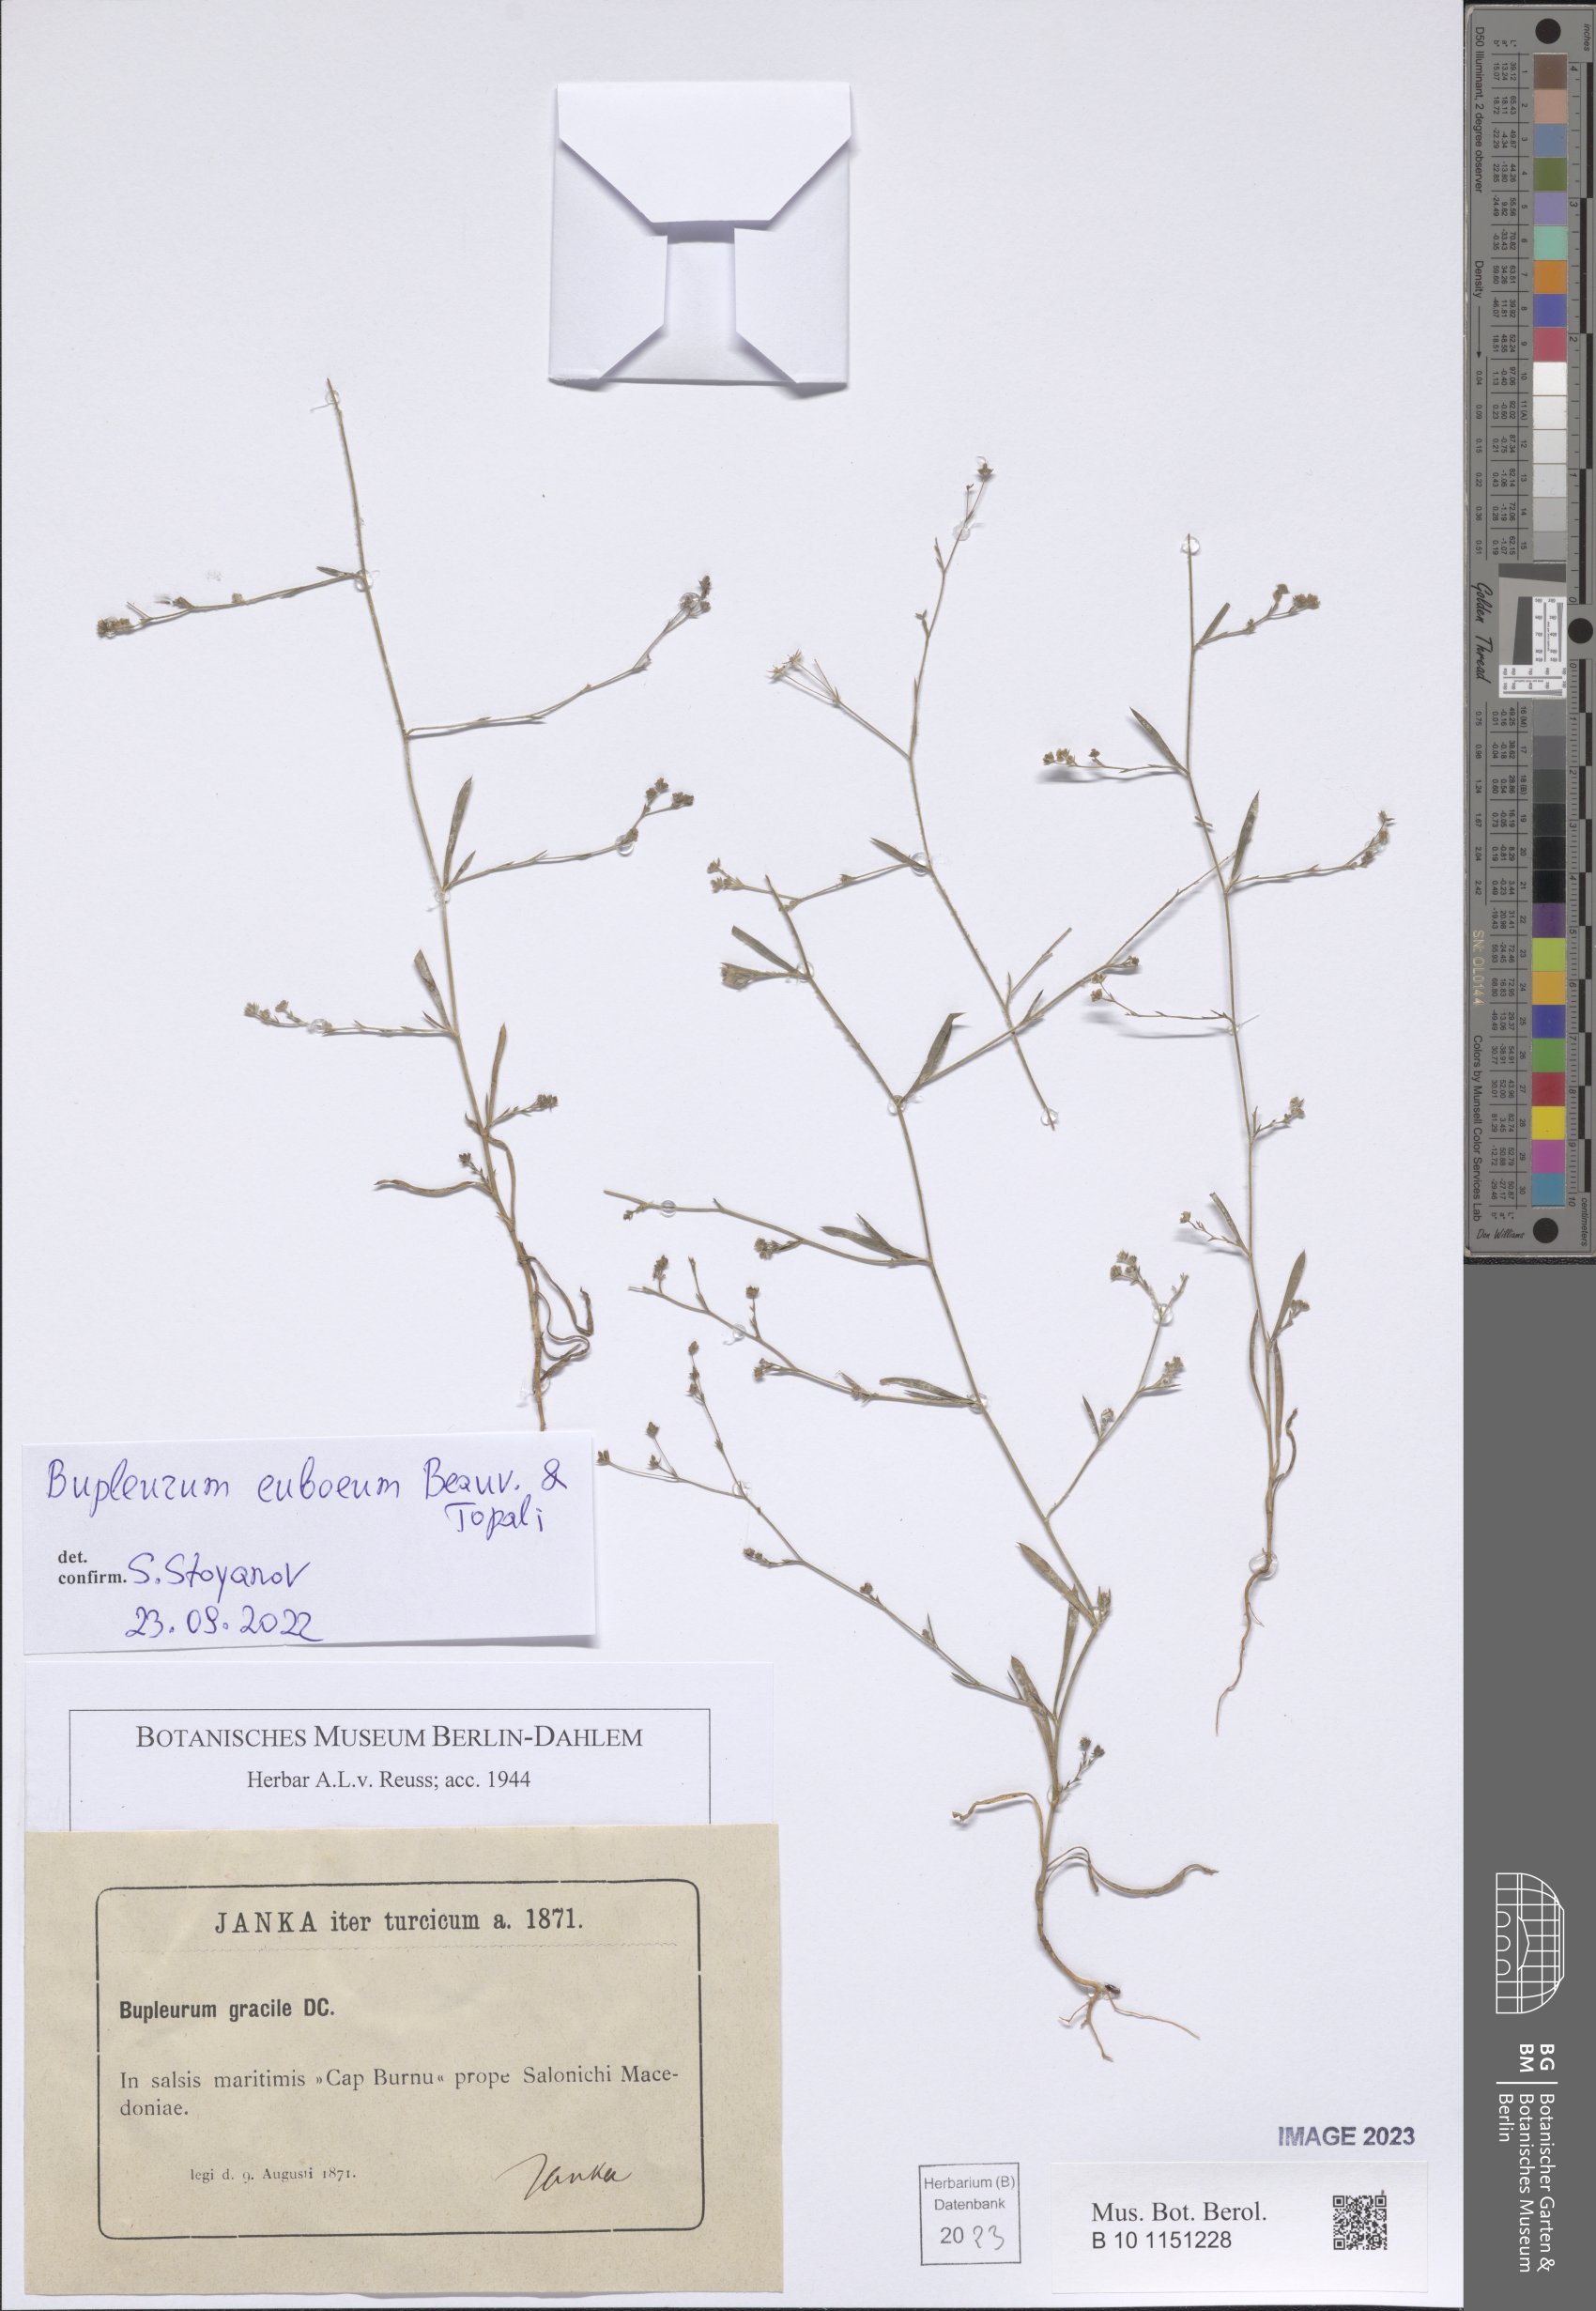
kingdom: Plantae
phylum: Tracheophyta
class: Magnoliopsida
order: Apiales
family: Apiaceae
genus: Bupleurum
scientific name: Bupleurum euboeum
